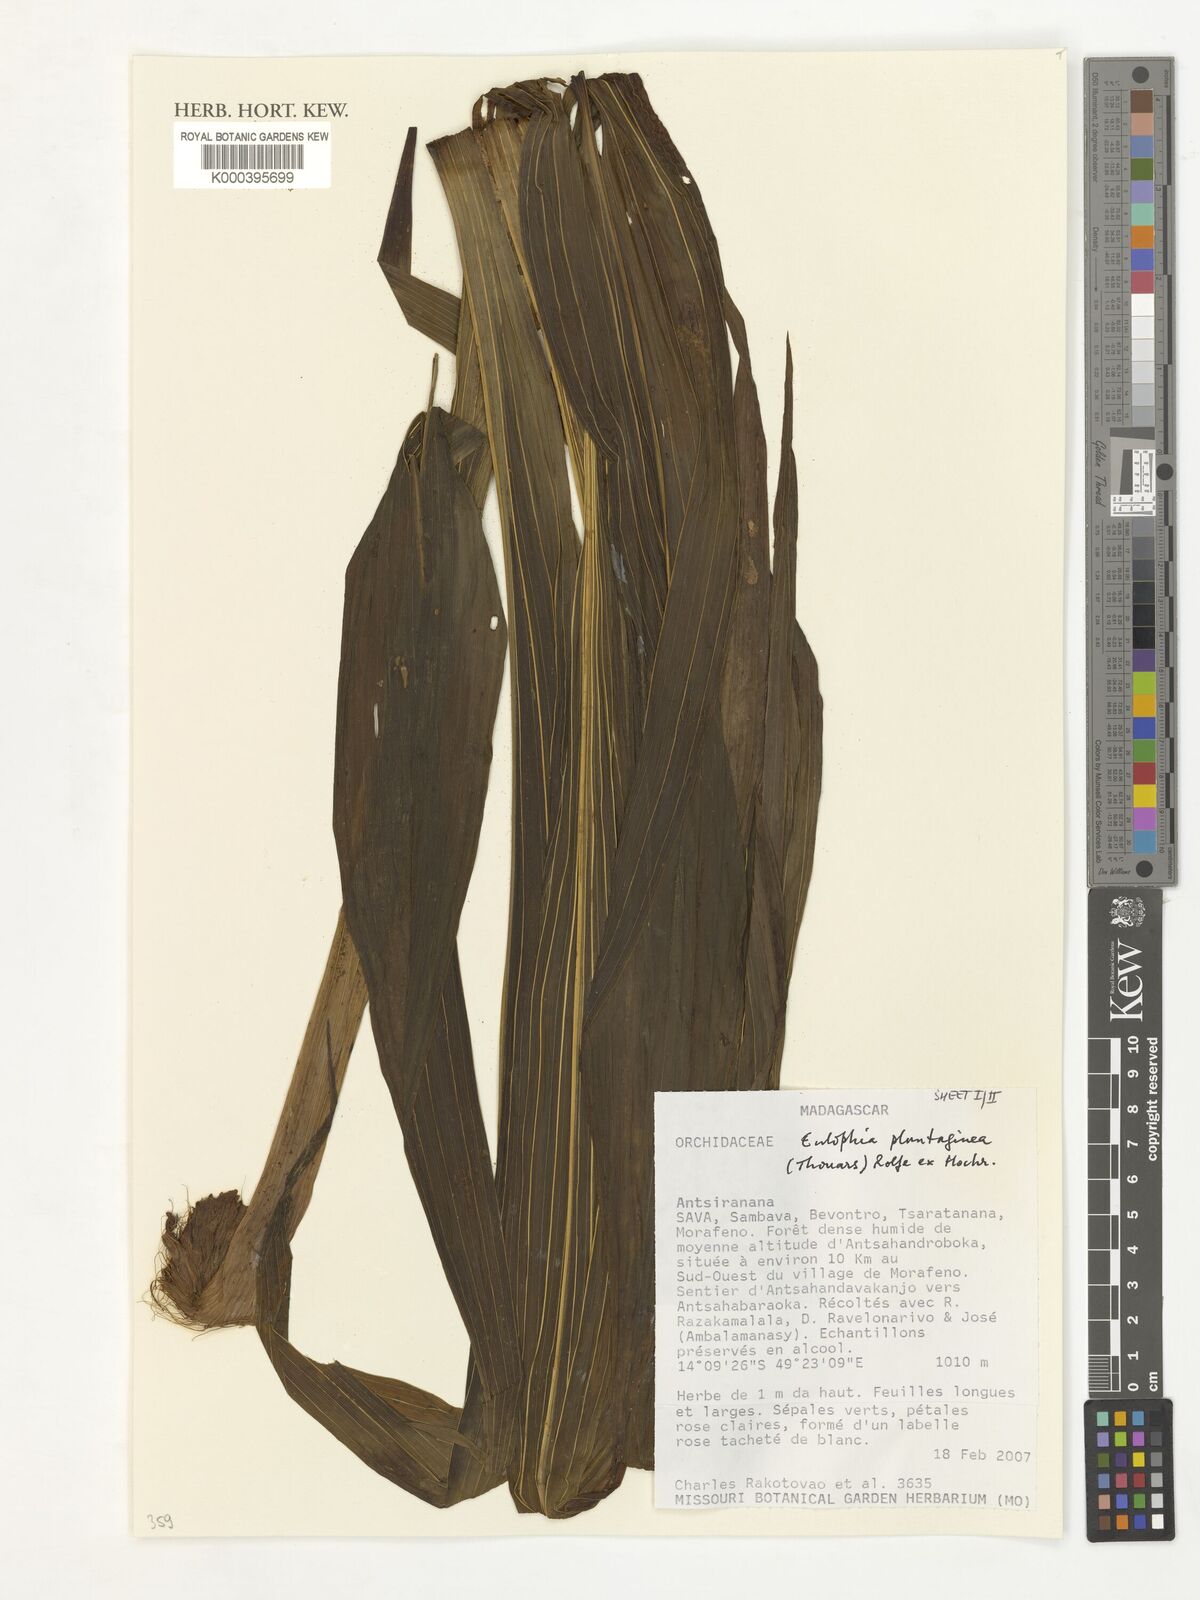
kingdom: Plantae
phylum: Tracheophyta
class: Liliopsida
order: Asparagales
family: Orchidaceae
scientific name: Orchidaceae
